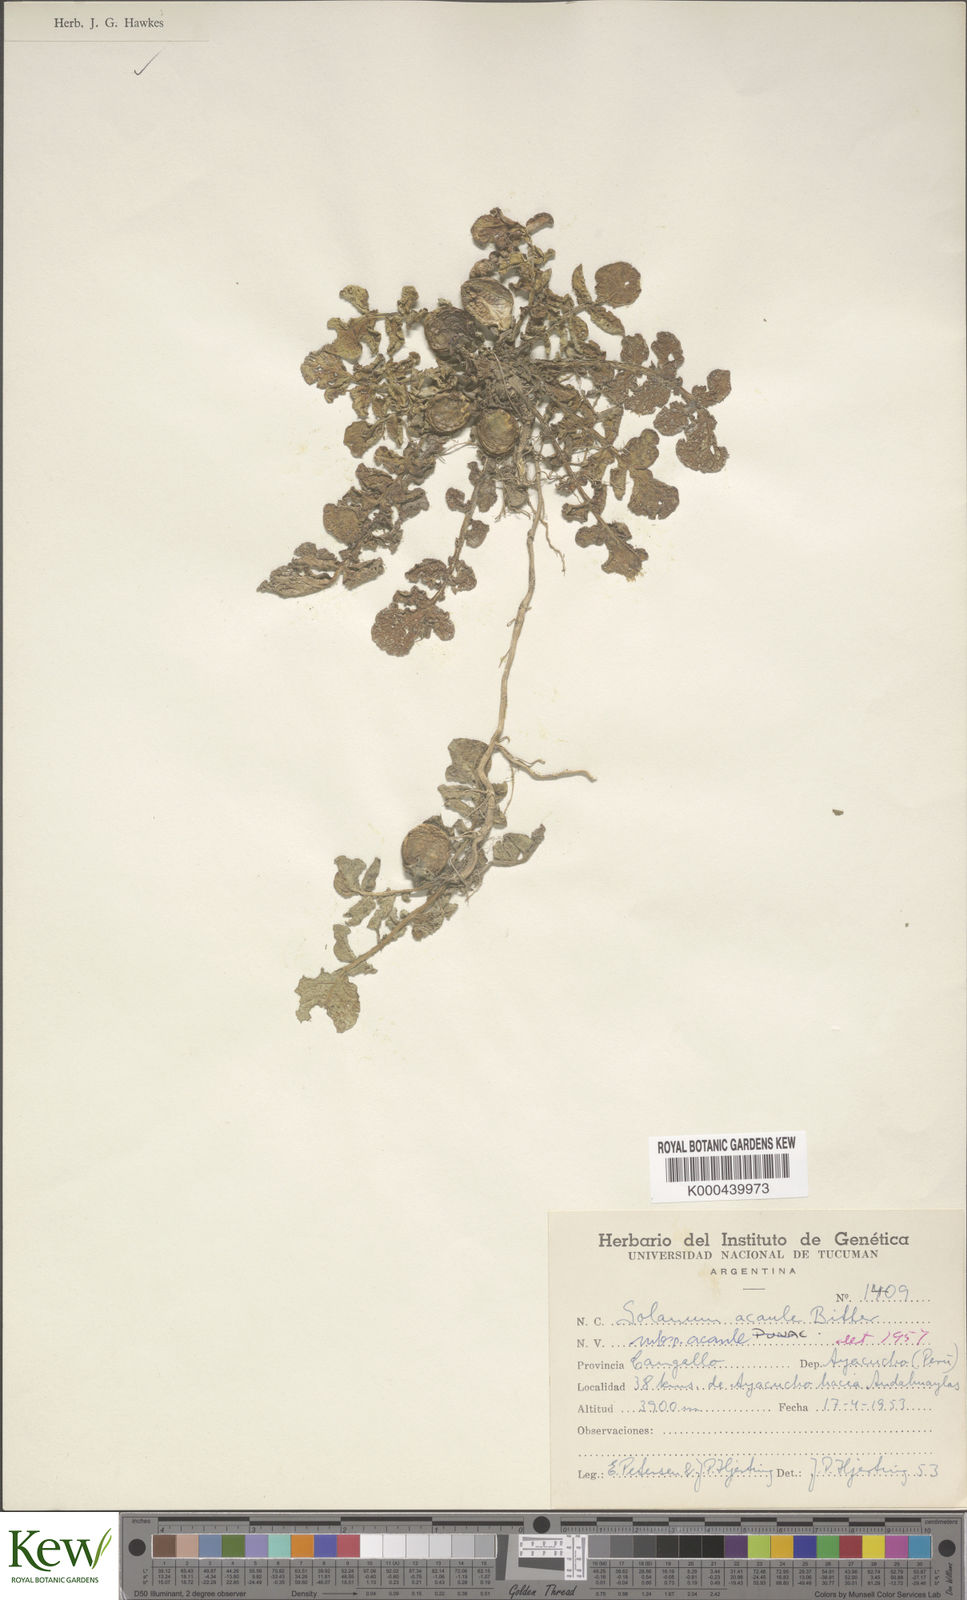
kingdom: Plantae
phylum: Tracheophyta
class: Magnoliopsida
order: Solanales
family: Solanaceae
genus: Solanum
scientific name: Solanum acaule
